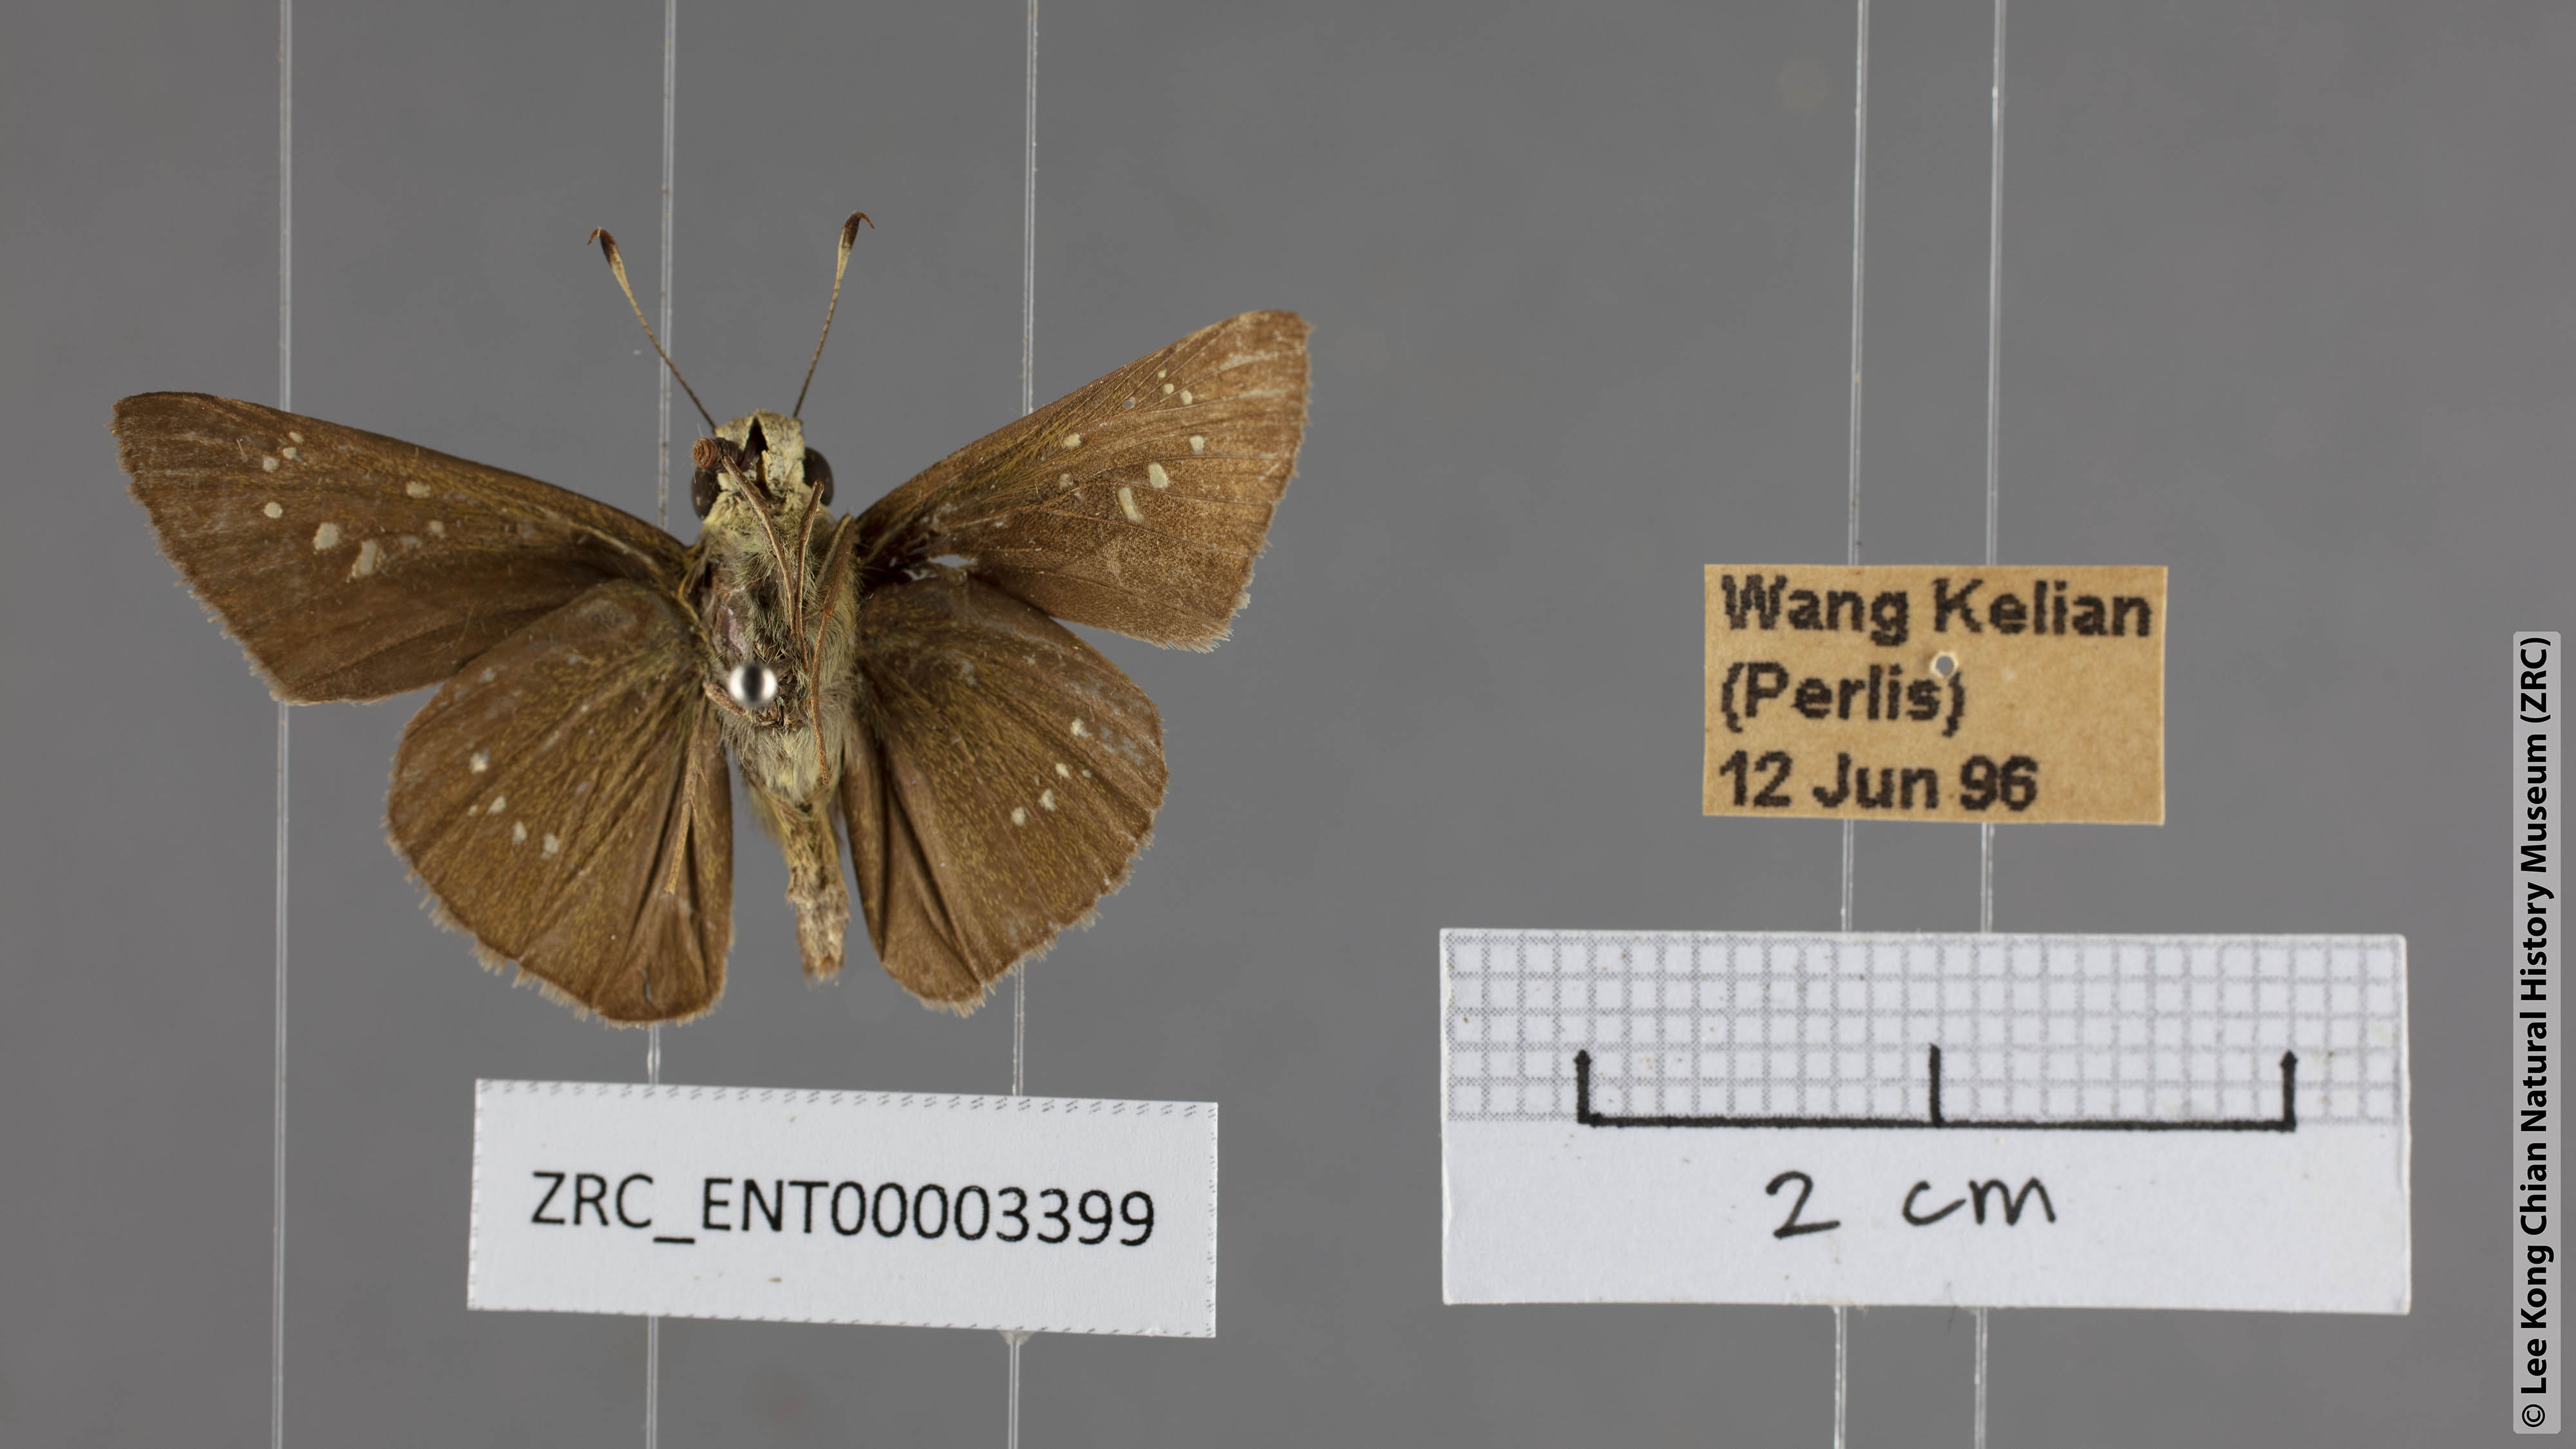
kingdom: Animalia
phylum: Arthropoda
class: Insecta
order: Lepidoptera
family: Hesperiidae
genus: Pelopidas
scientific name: Pelopidas agna
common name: Little branded swift
